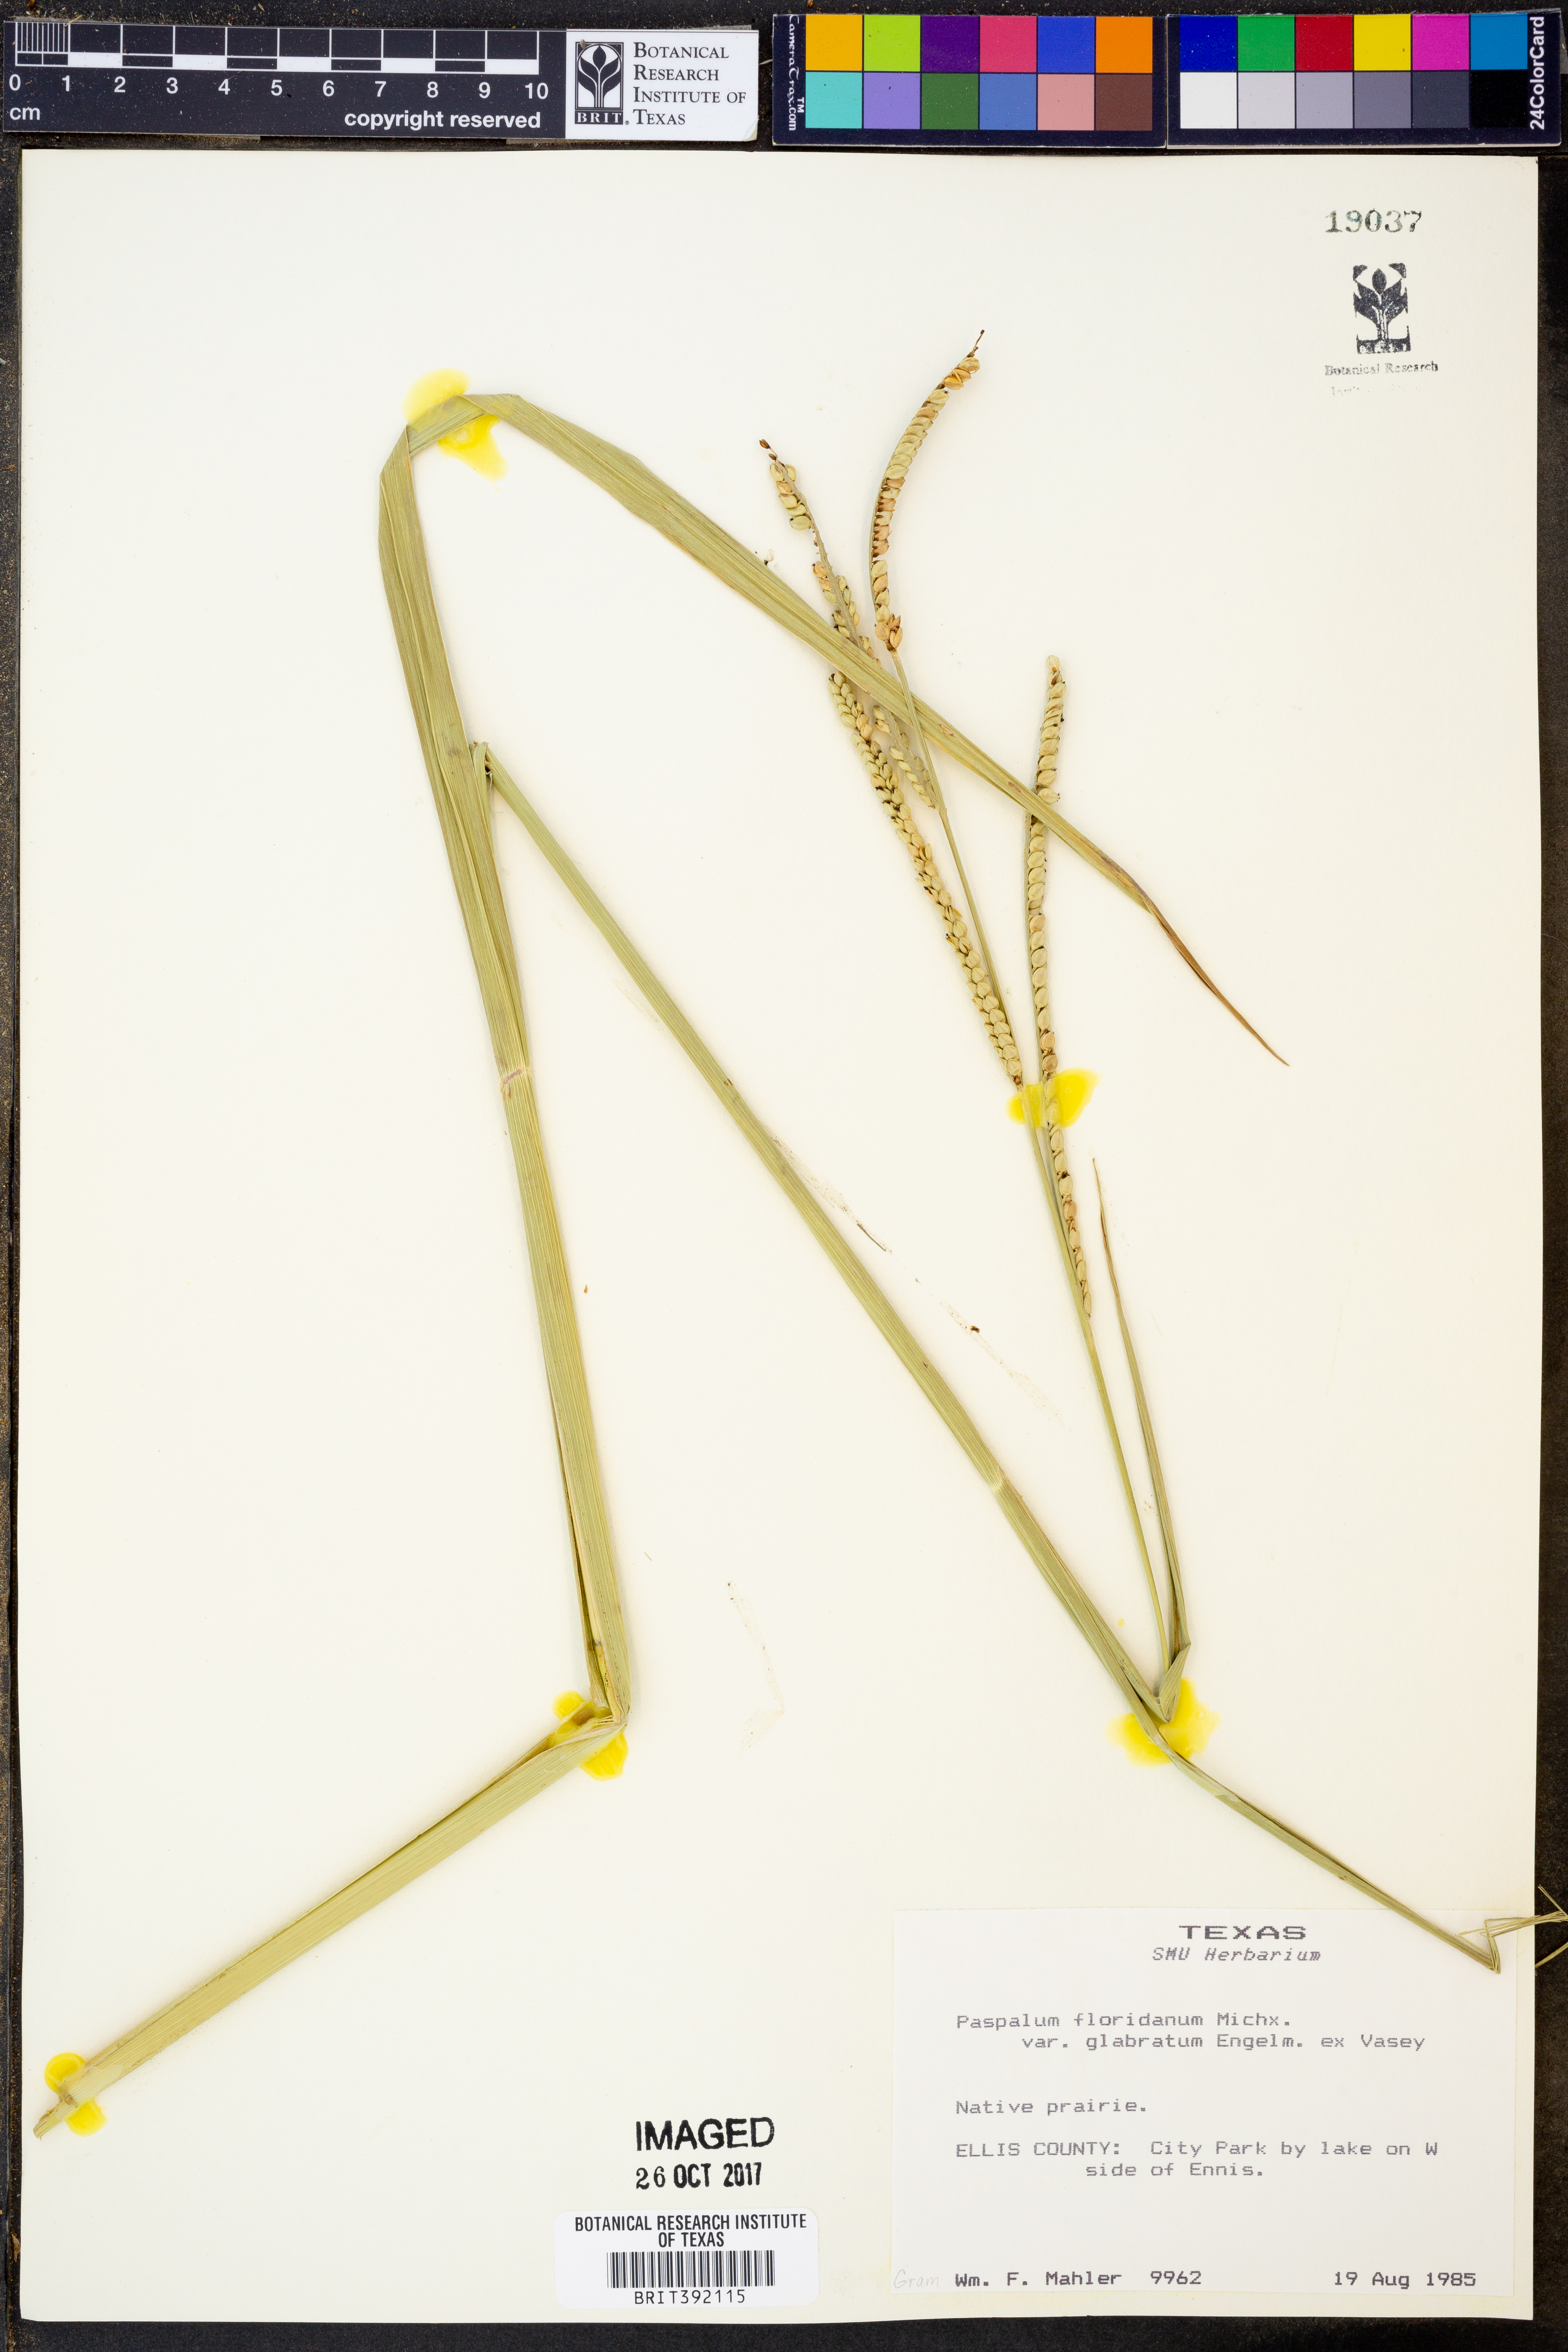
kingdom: Plantae
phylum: Tracheophyta
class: Liliopsida
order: Poales
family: Poaceae
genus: Paspalum
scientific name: Paspalum floridanum
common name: Florida paspalum
